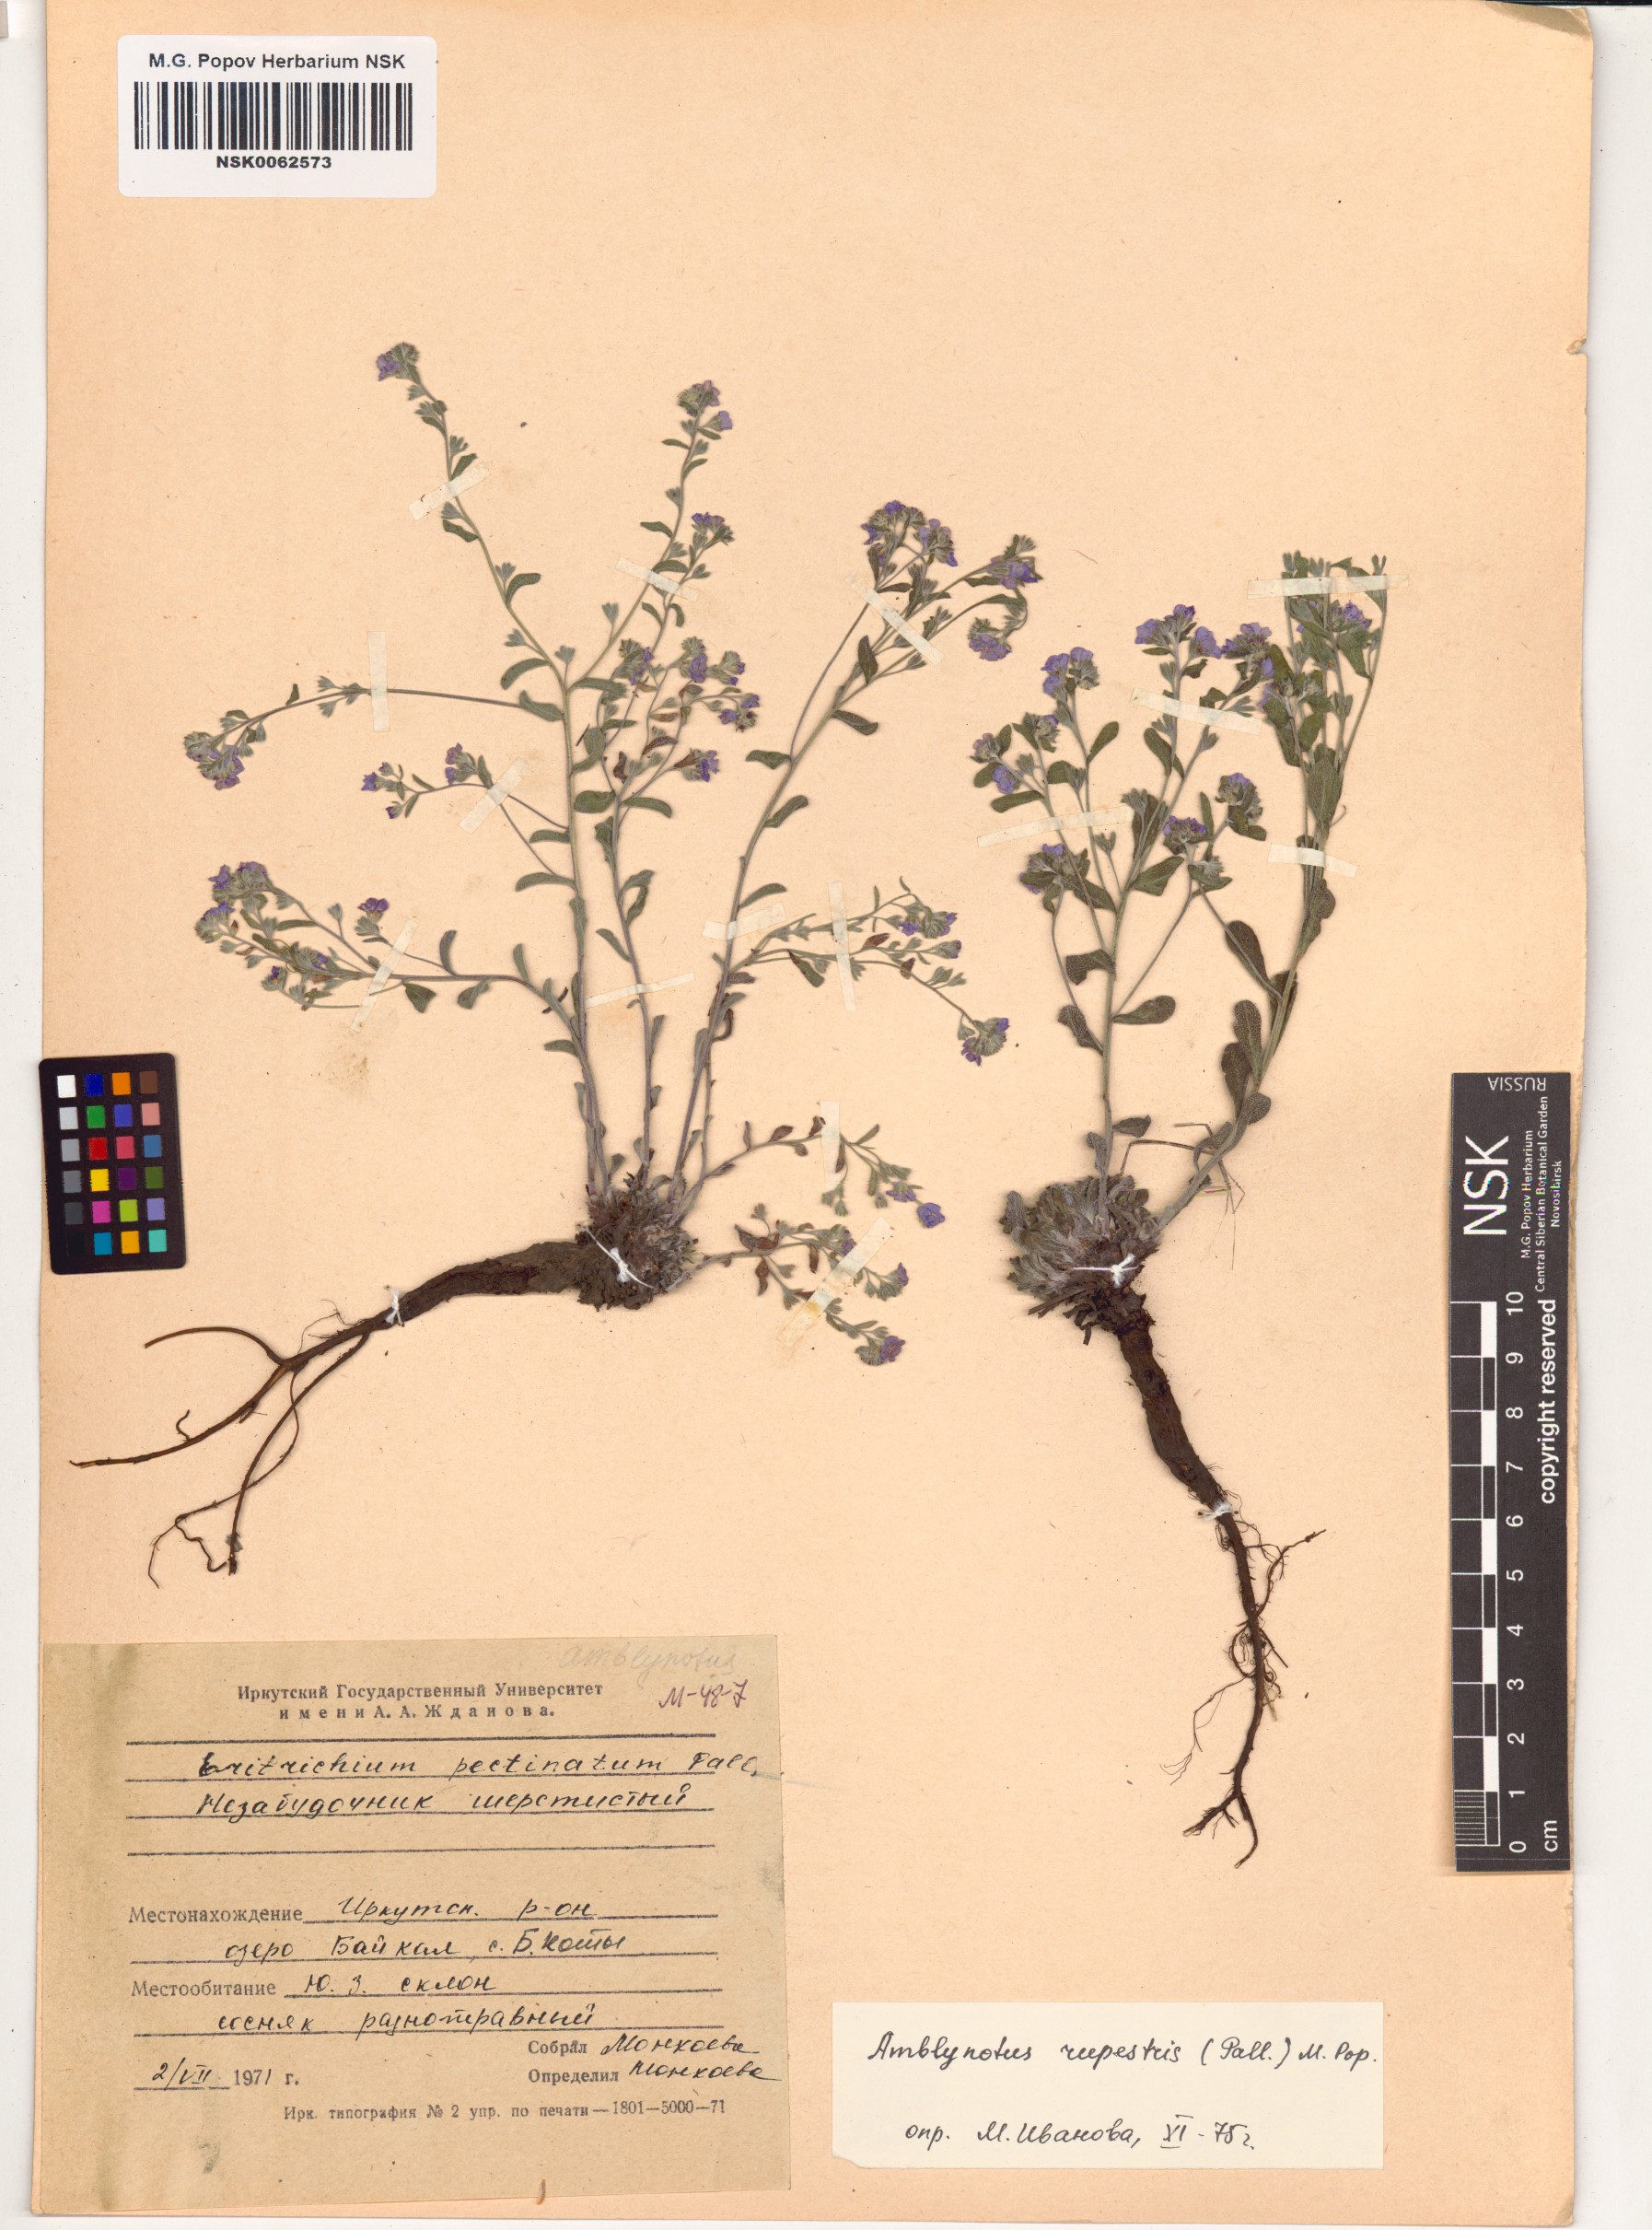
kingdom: Plantae
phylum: Tracheophyta
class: Magnoliopsida
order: Boraginales
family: Boraginaceae
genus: Eritrichium
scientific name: Eritrichium rupestre
